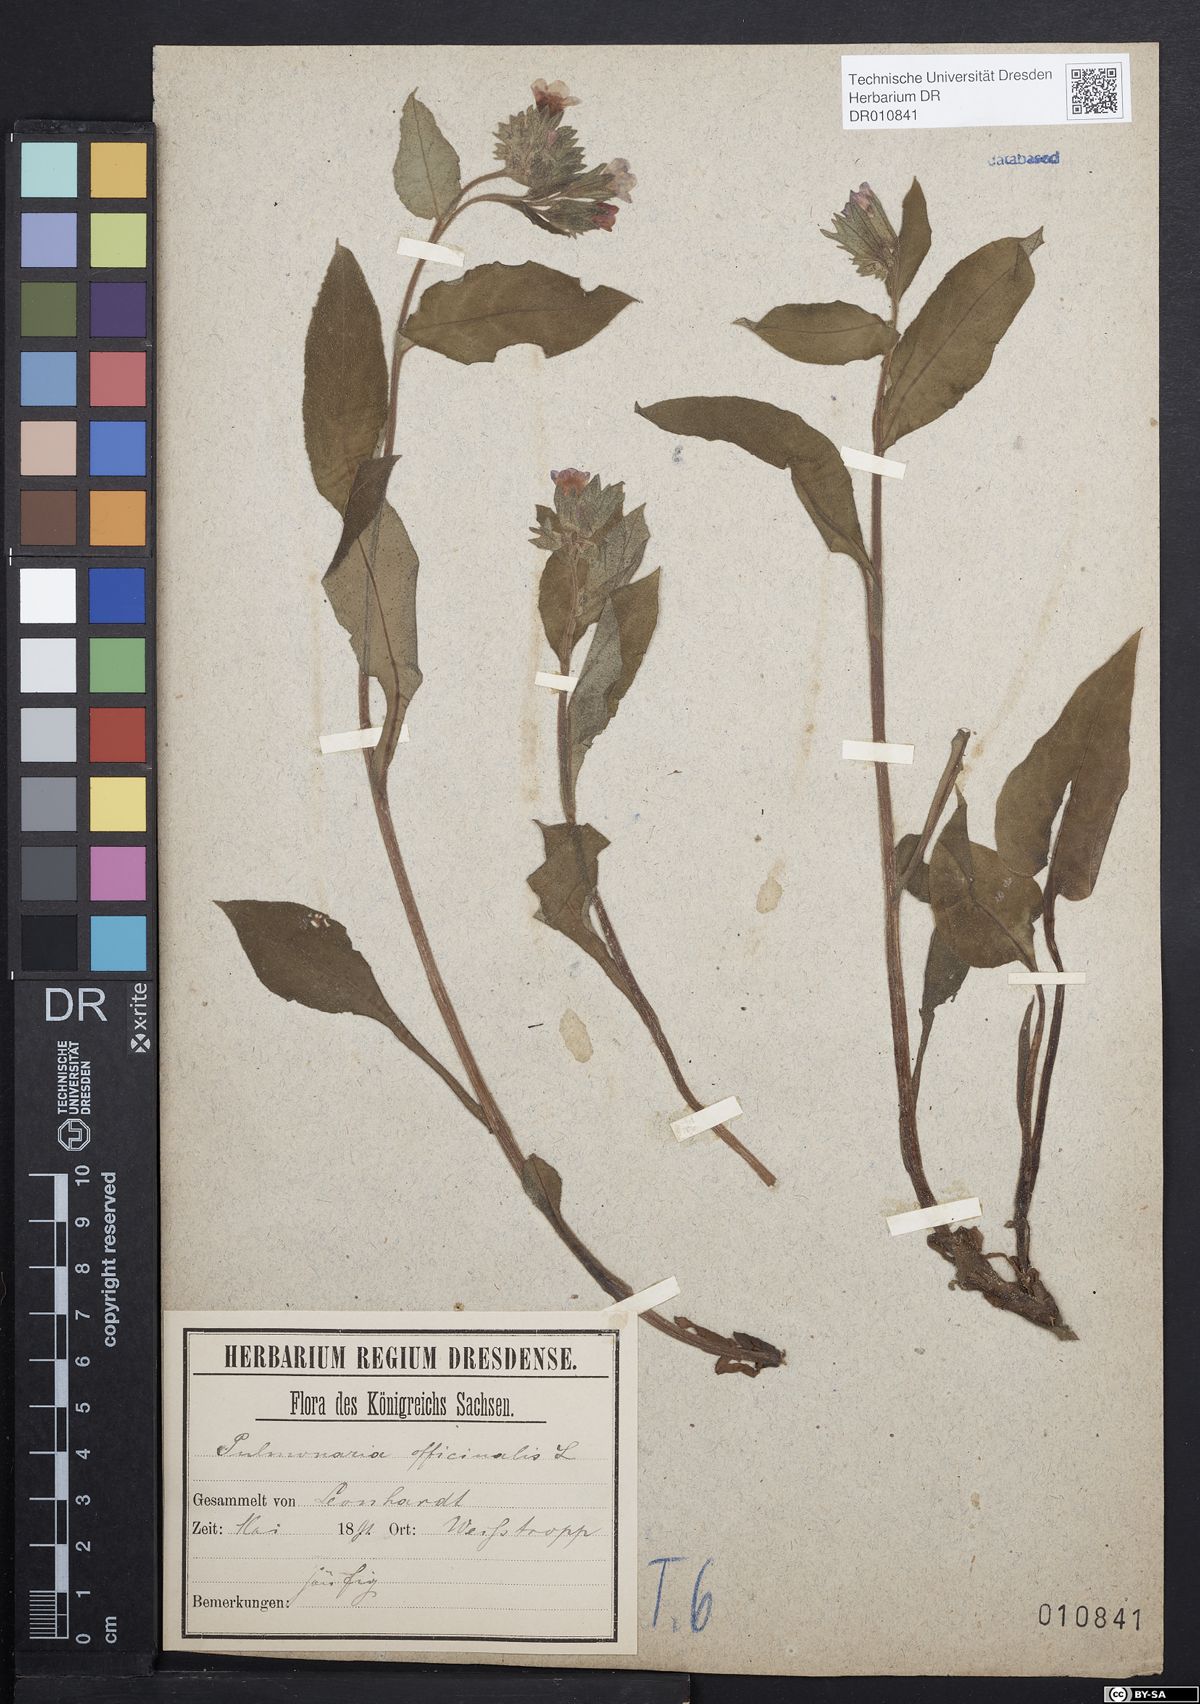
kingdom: Plantae
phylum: Tracheophyta
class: Magnoliopsida
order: Boraginales
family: Boraginaceae
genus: Pulmonaria
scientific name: Pulmonaria obscura
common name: Suffolk lungwort
